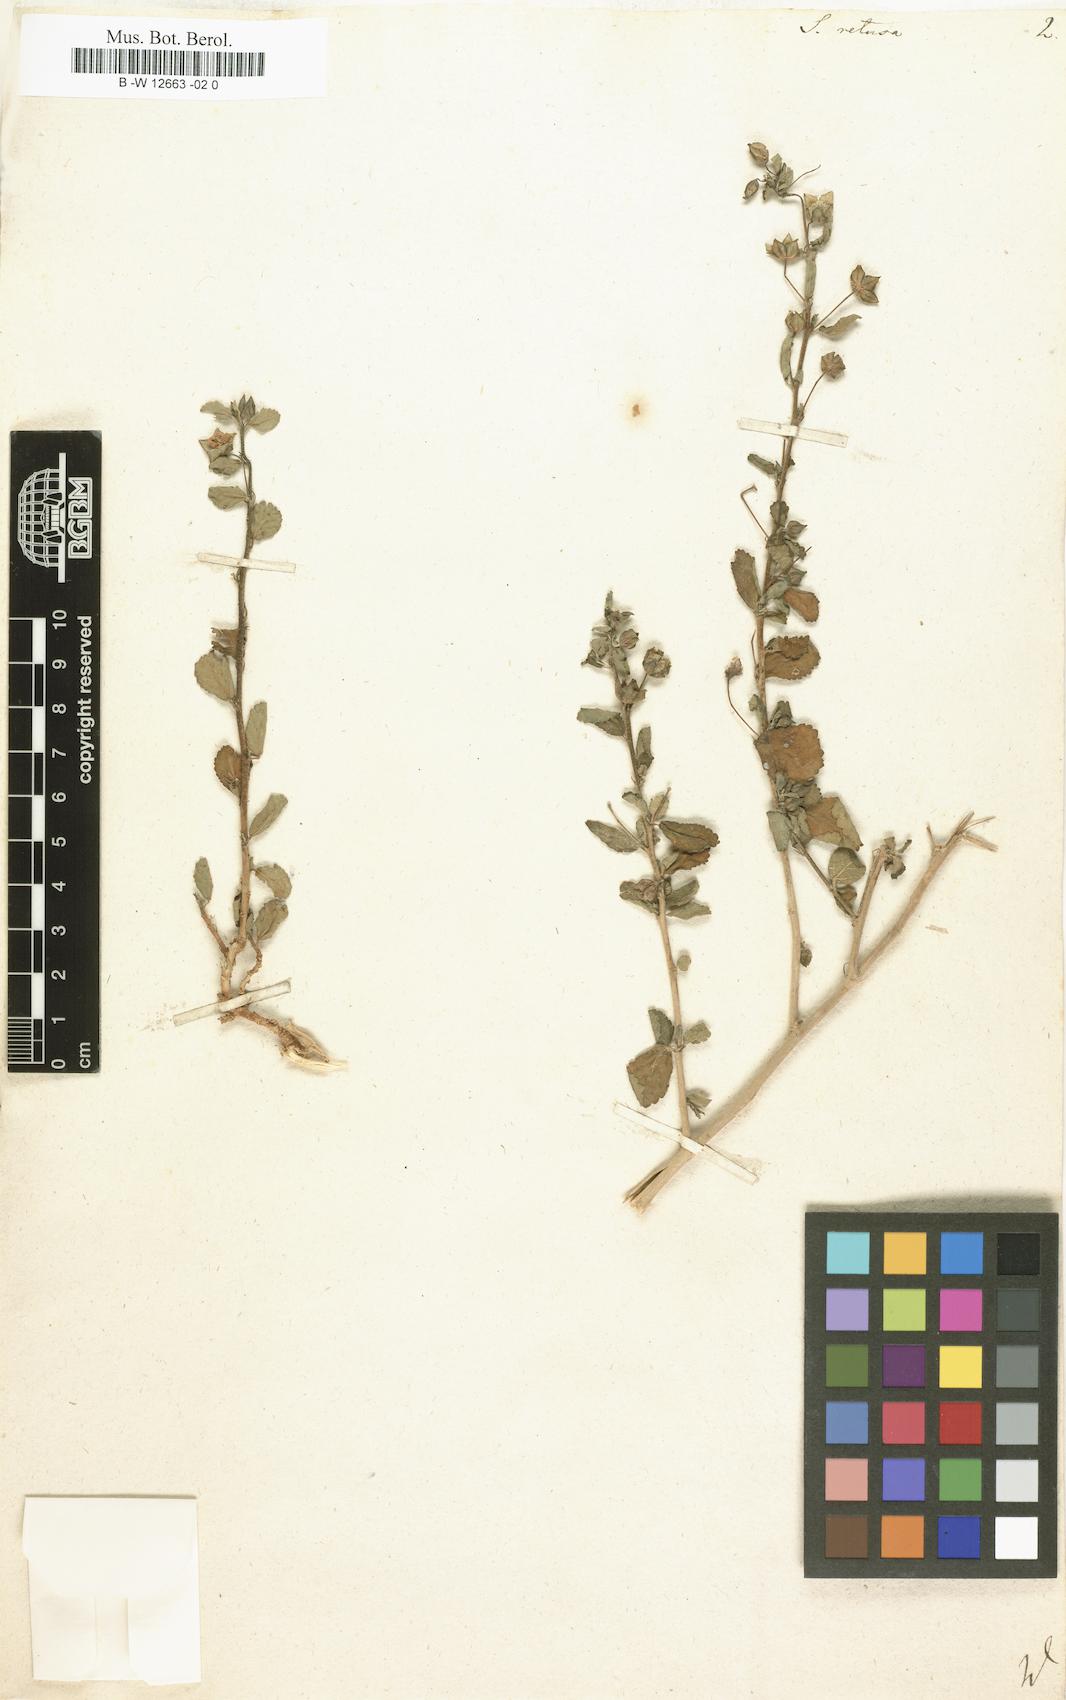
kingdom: Plantae
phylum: Tracheophyta
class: Magnoliopsida
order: Malvales
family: Malvaceae
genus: Sida
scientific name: Sida
